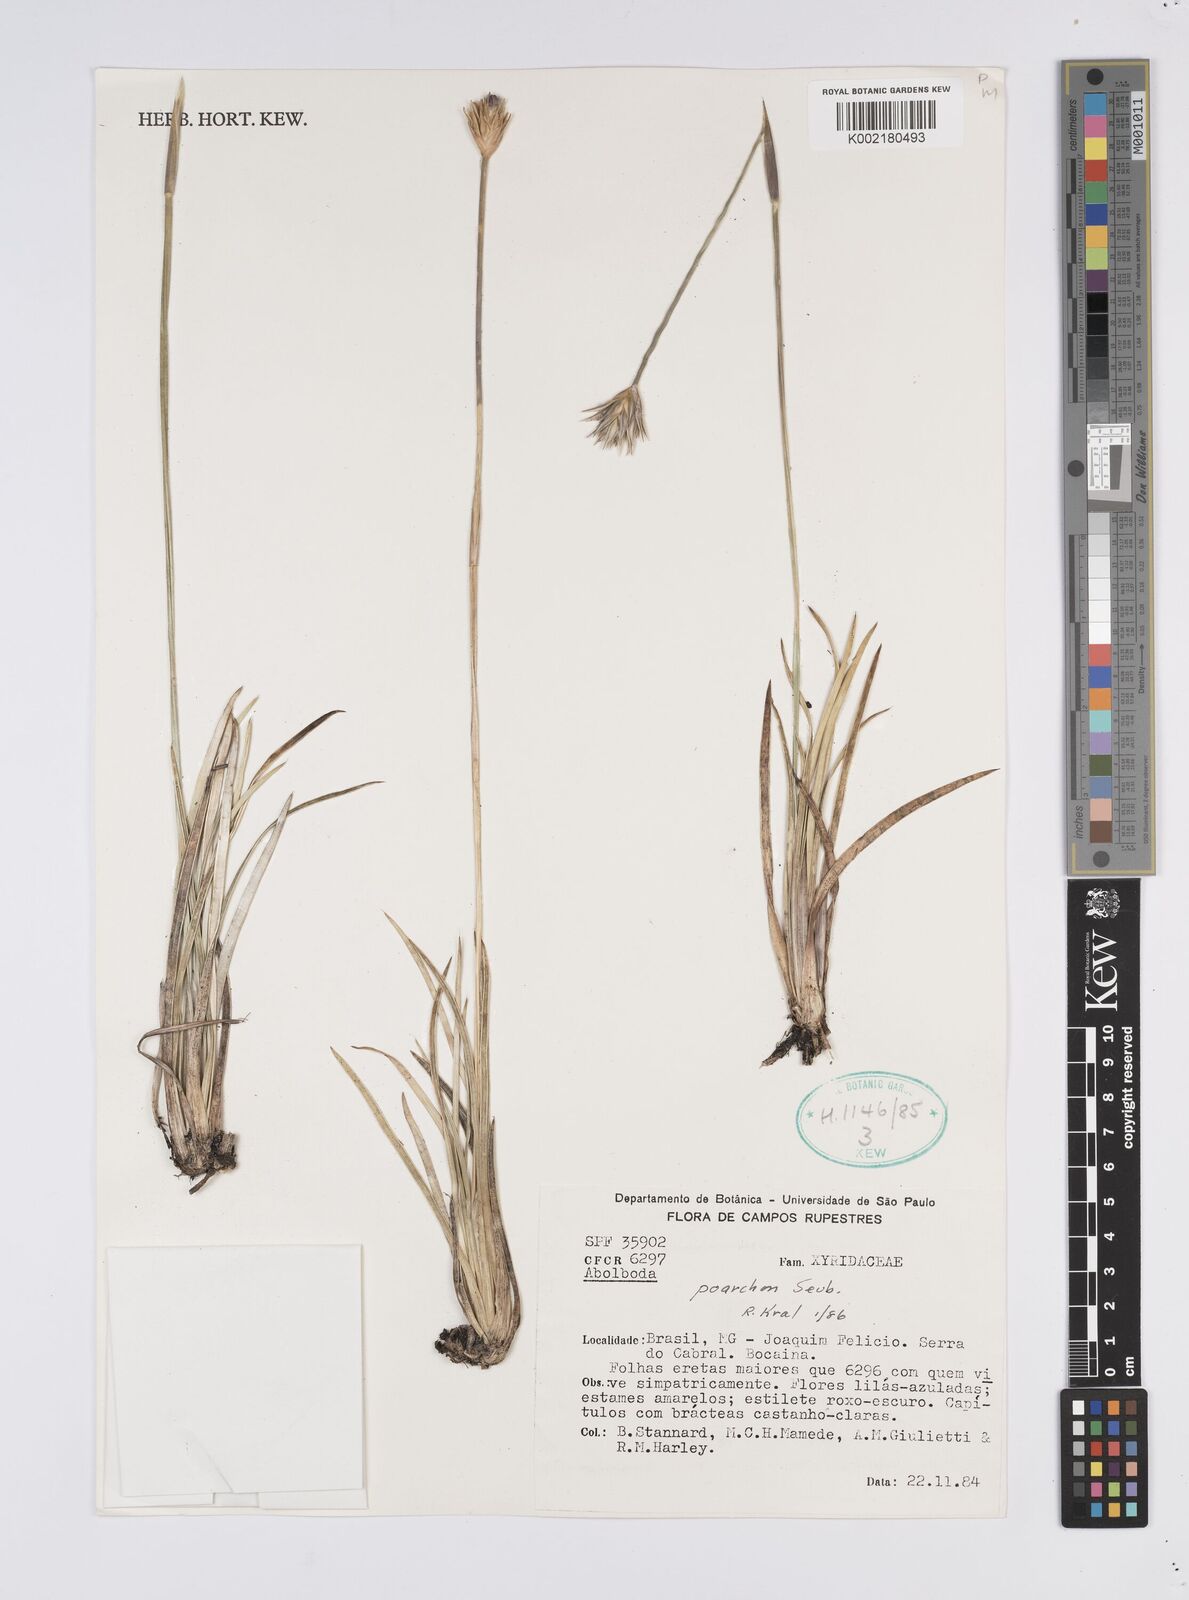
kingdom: Plantae
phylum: Tracheophyta
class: Liliopsida
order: Poales
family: Xyridaceae
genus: Abolboda
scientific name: Abolboda poarchon
